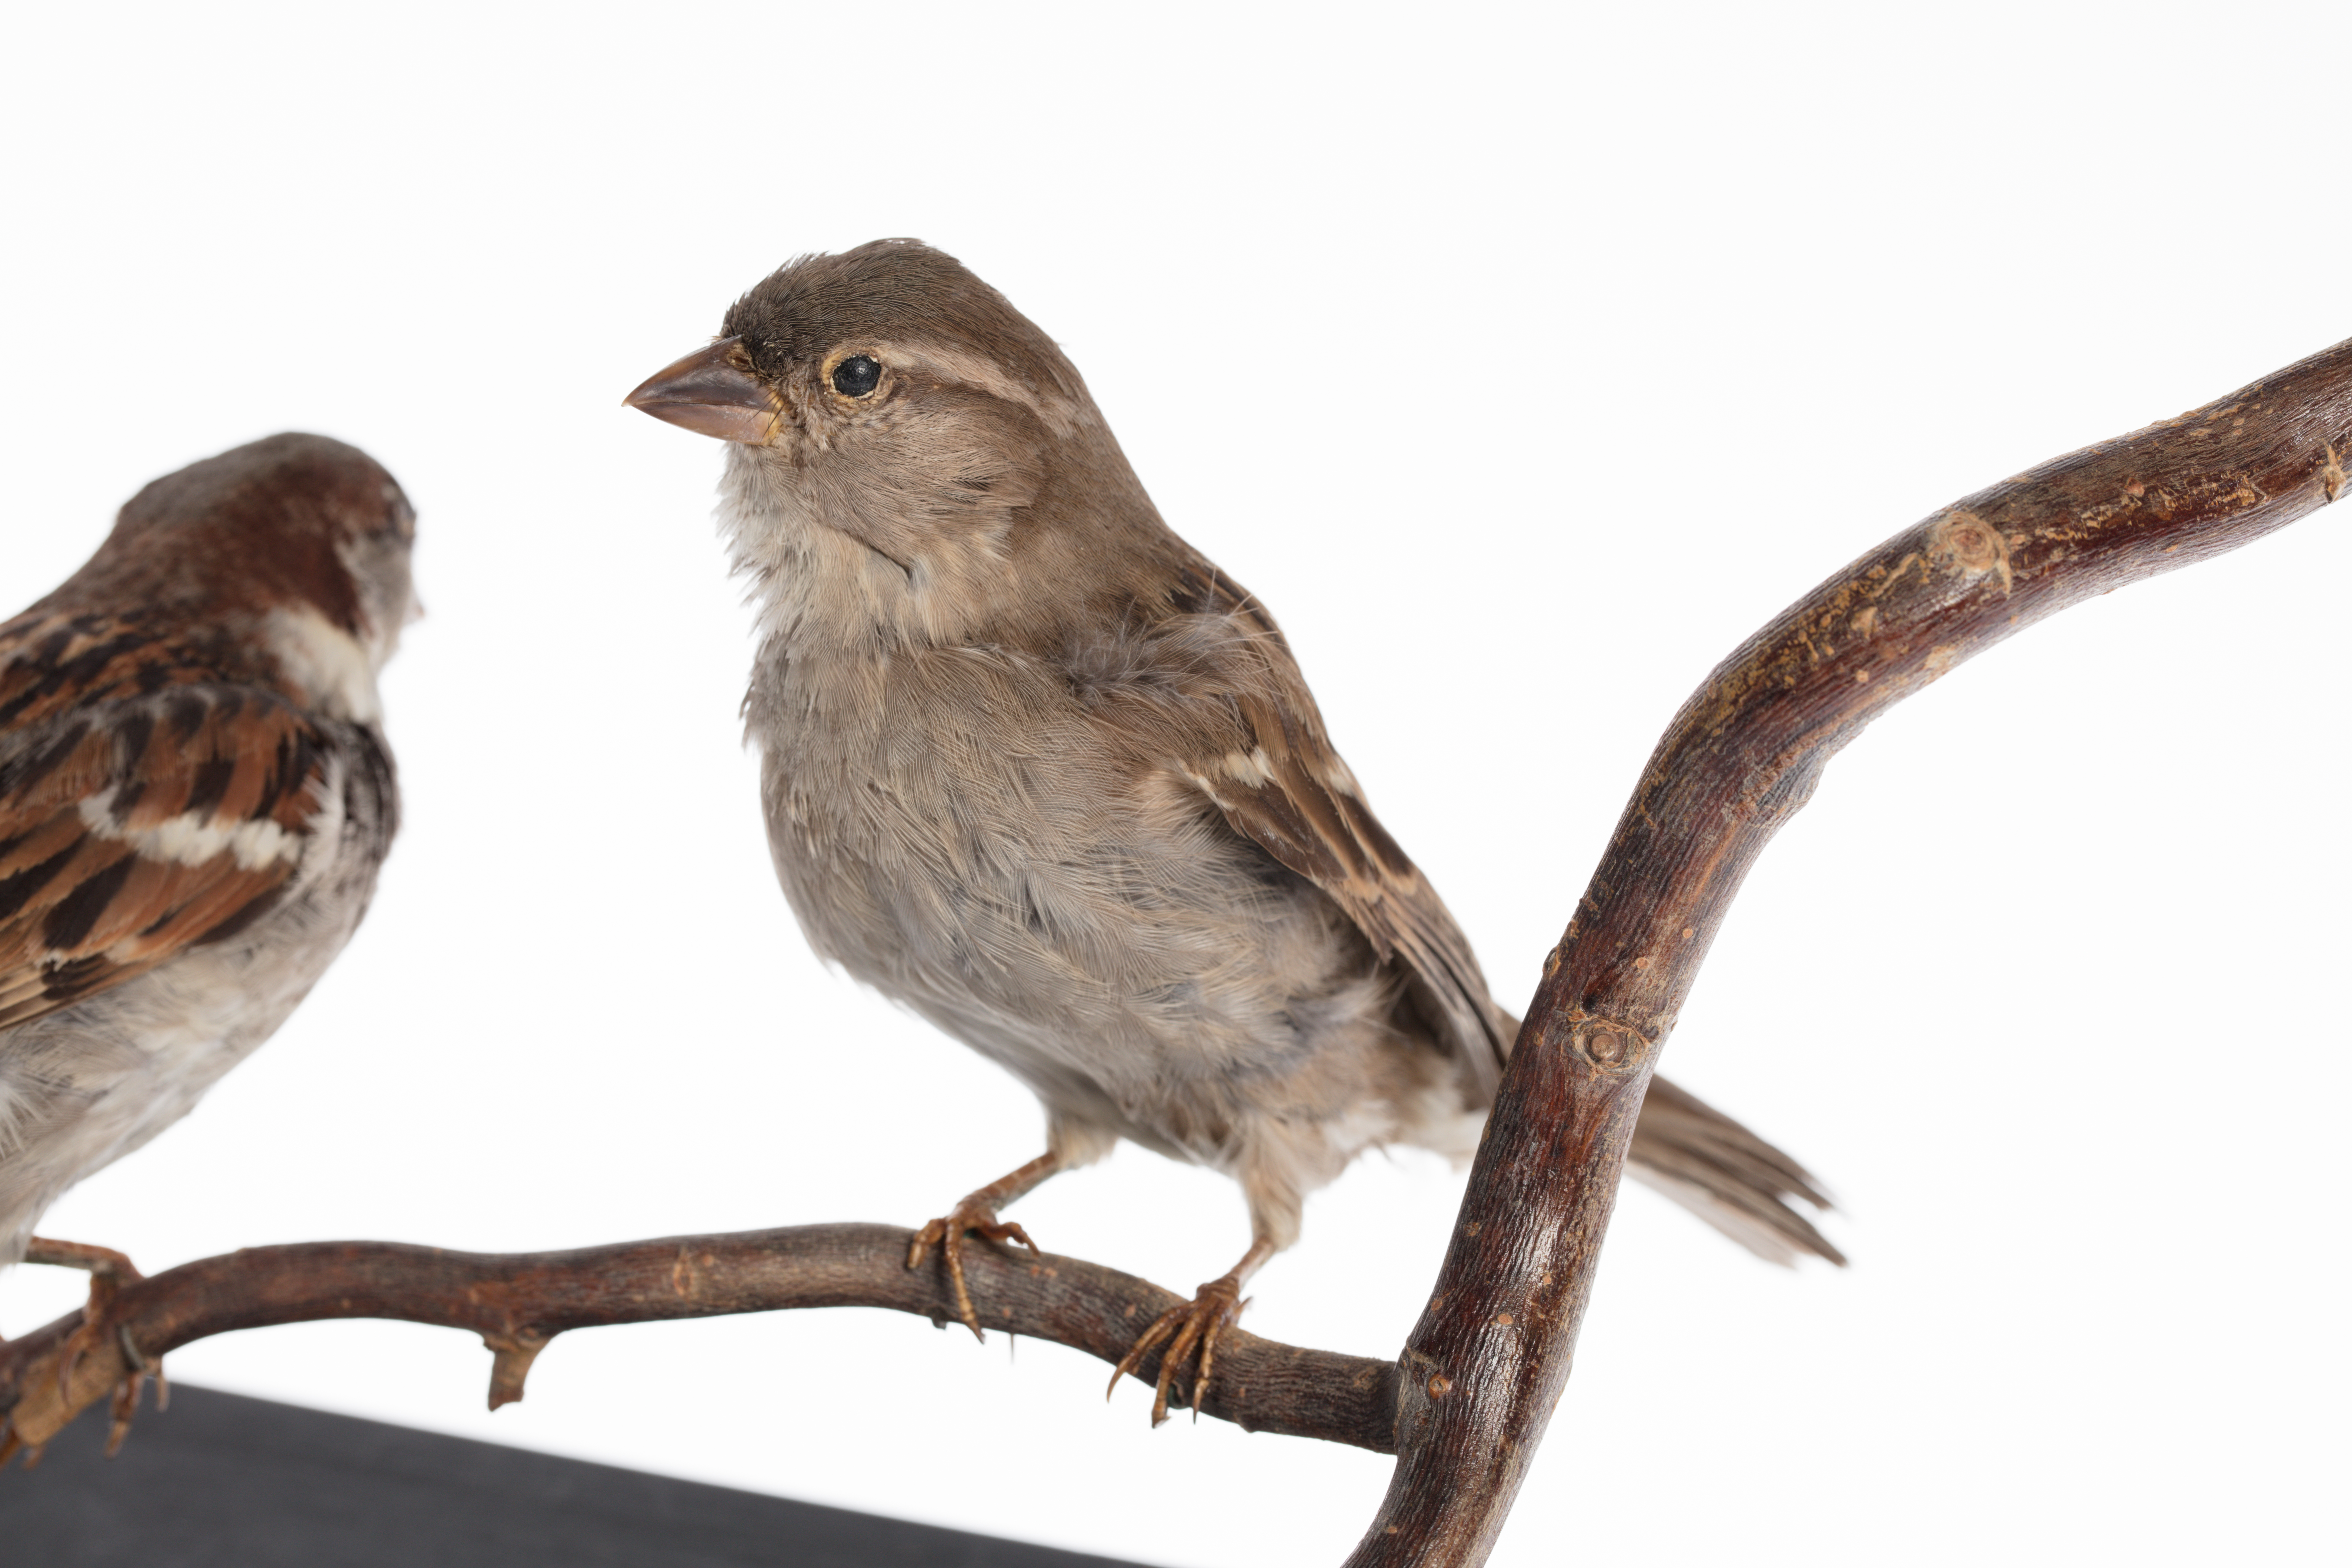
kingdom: Animalia
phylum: Chordata
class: Aves
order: Passeriformes
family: Passeridae
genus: Passer
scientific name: Passer domesticus
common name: House sparrow
